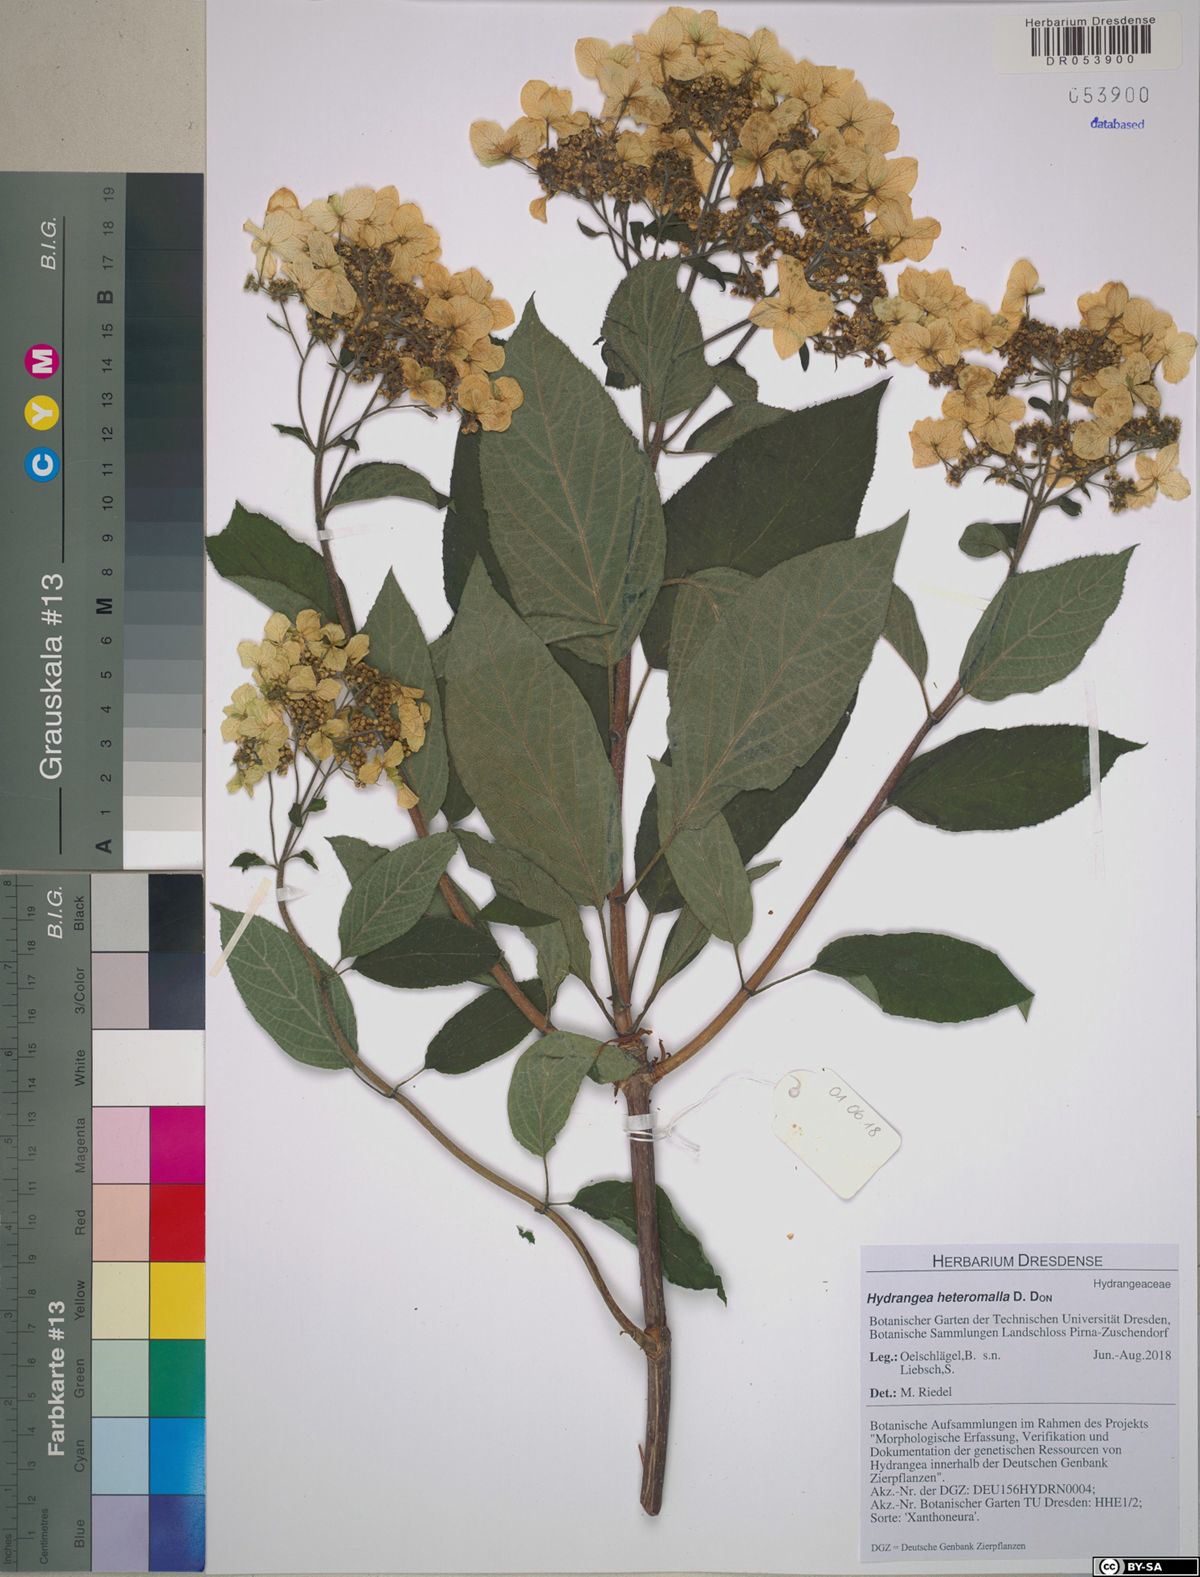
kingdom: Plantae
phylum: Tracheophyta
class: Magnoliopsida
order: Cornales
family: Hydrangeaceae
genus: Hydrangea
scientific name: Hydrangea heteromalla
